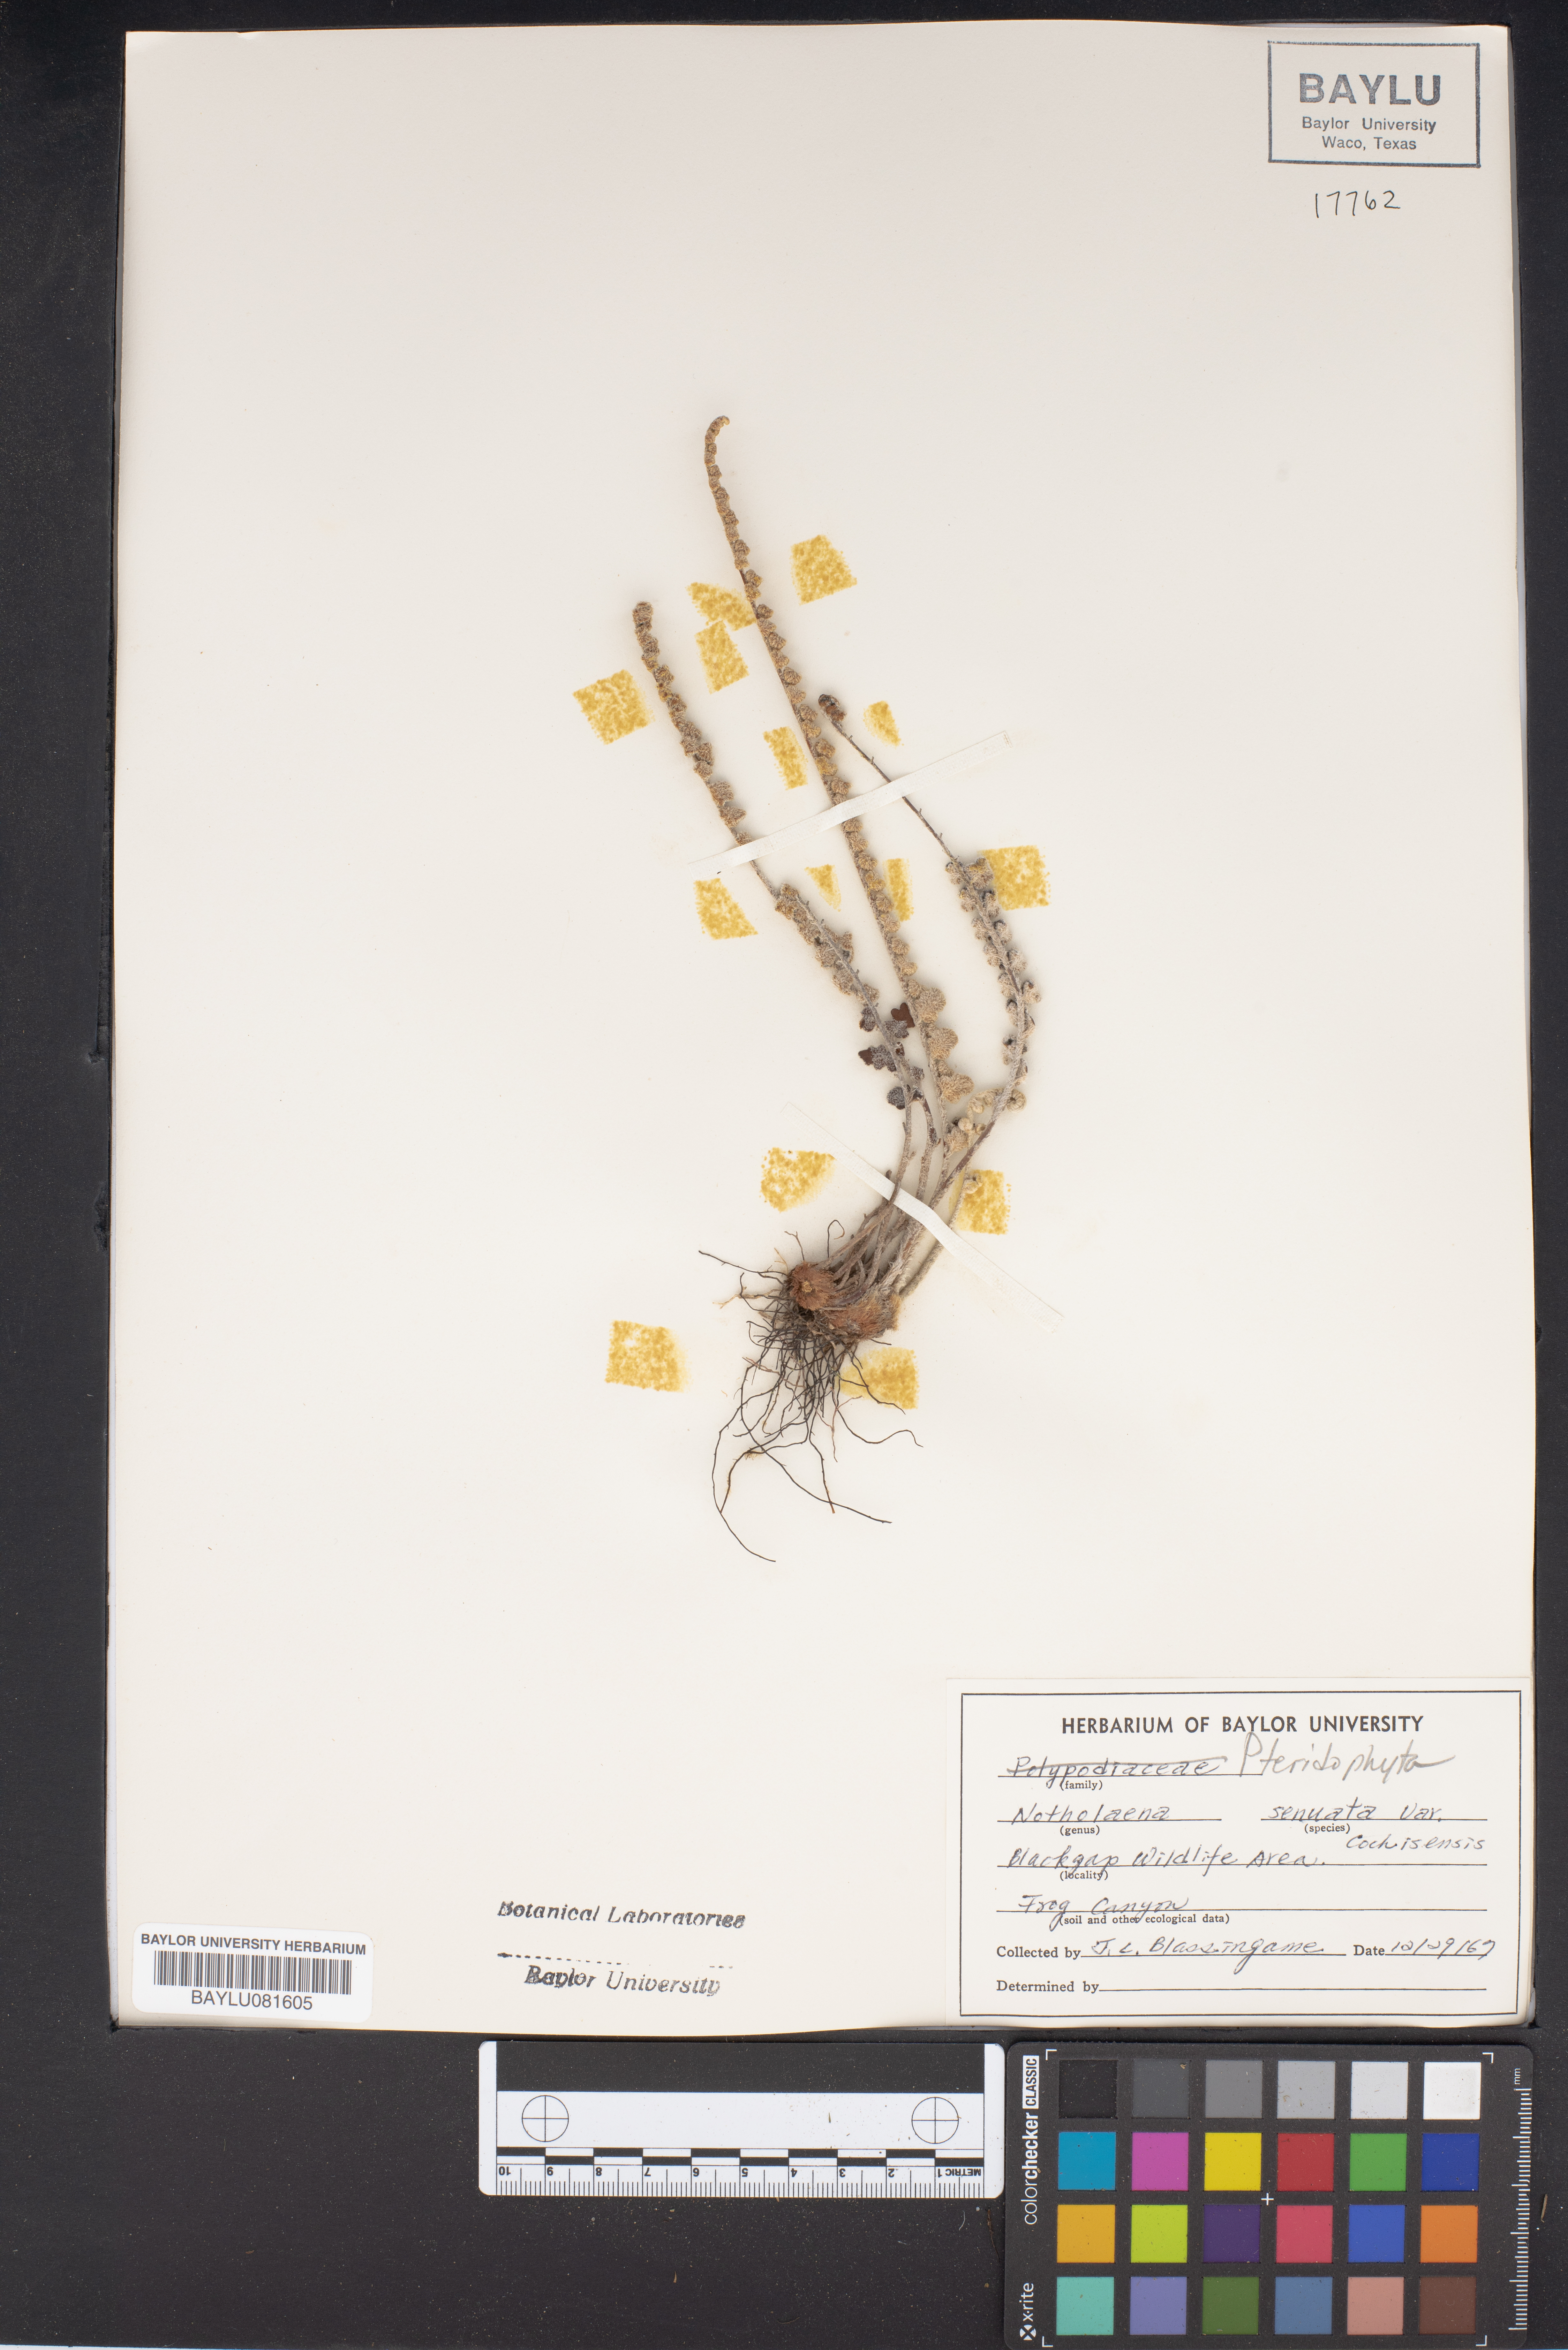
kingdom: Plantae
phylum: Tracheophyta
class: Polypodiopsida
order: Polypodiales
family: Pteridaceae
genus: Astrolepis
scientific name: Astrolepis sinuata
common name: Wavy scaly cloakfern
